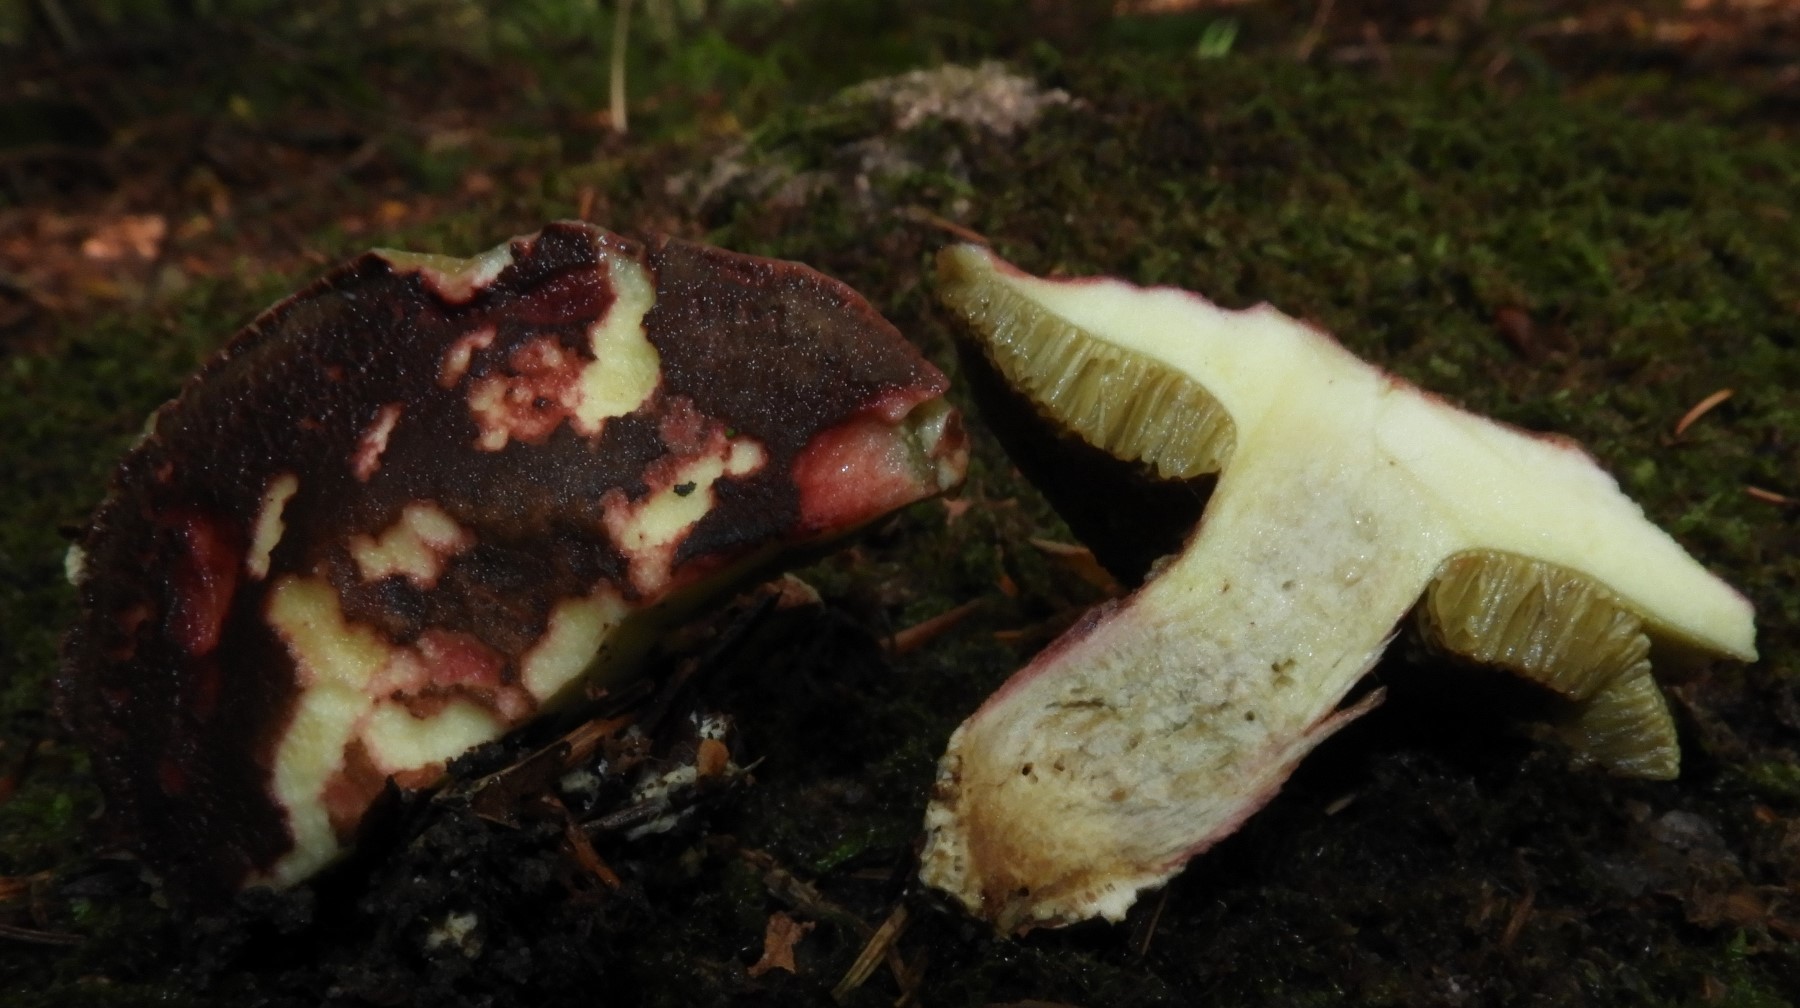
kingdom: Fungi
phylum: Basidiomycota
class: Agaricomycetes
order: Boletales
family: Boletaceae
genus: Xerocomellus
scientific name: Xerocomellus chrysenteron
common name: rødsprukken rørhat
